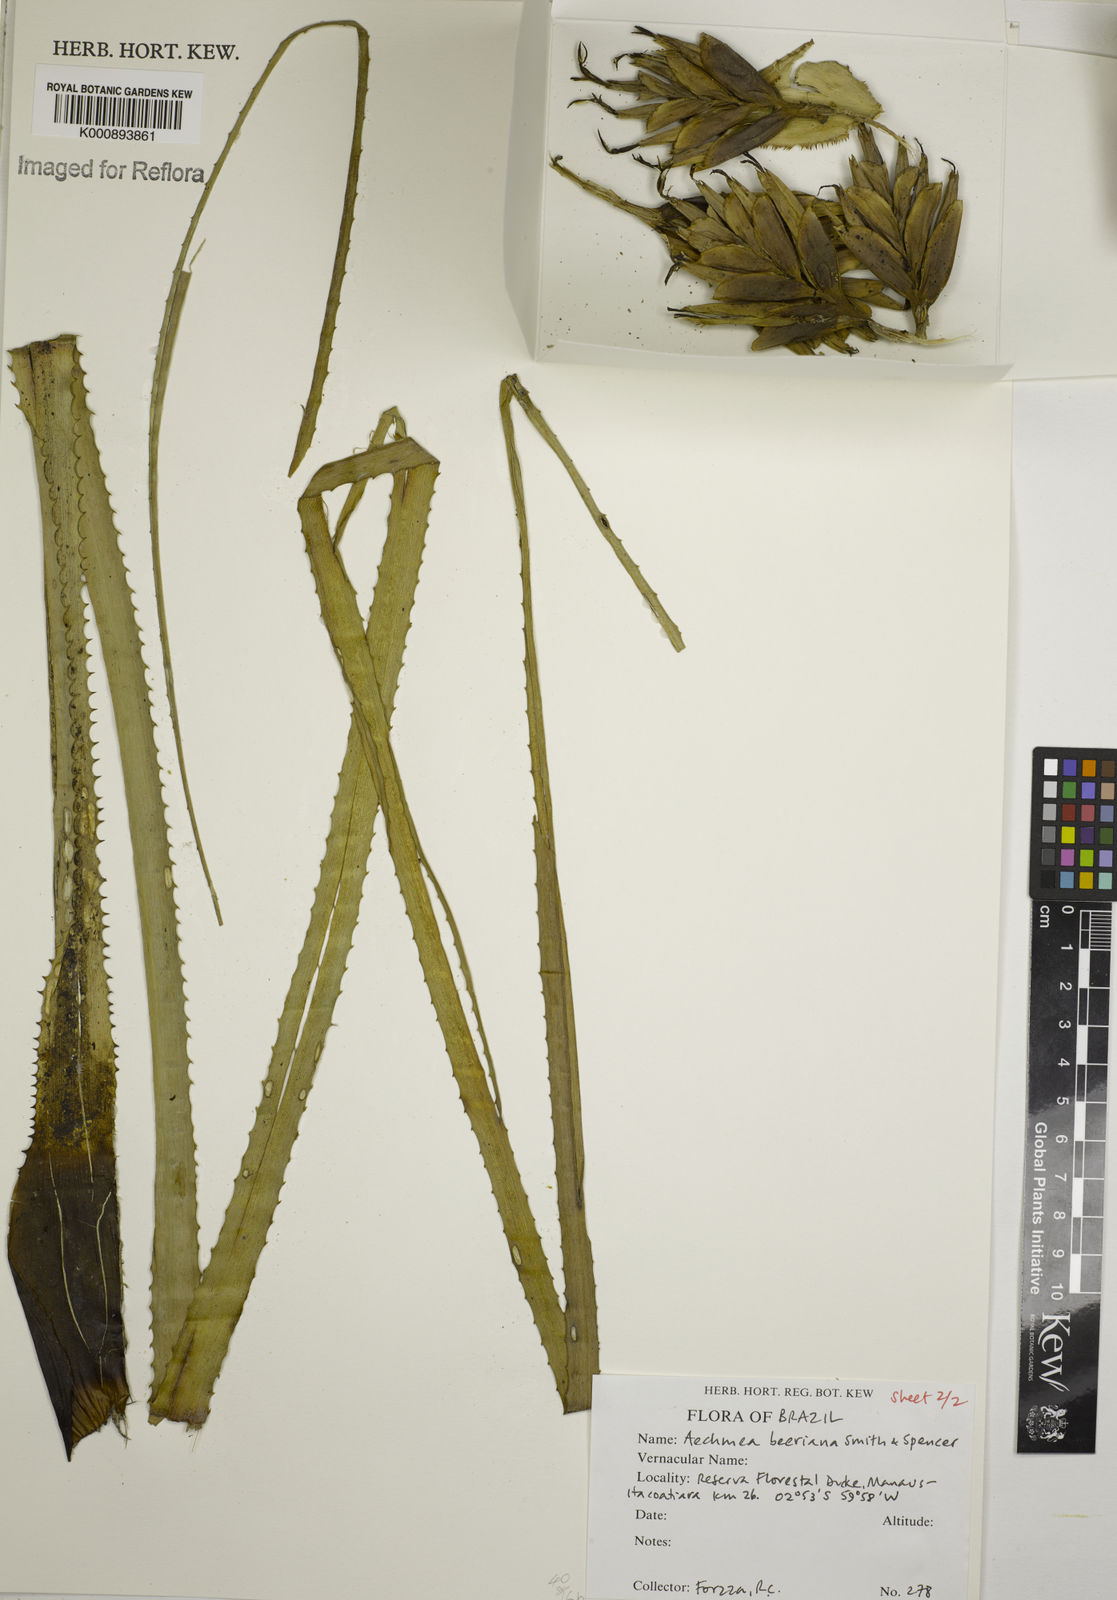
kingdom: Plantae
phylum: Tracheophyta
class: Liliopsida
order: Poales
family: Bromeliaceae
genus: Aechmea
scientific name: Aechmea longifolia
